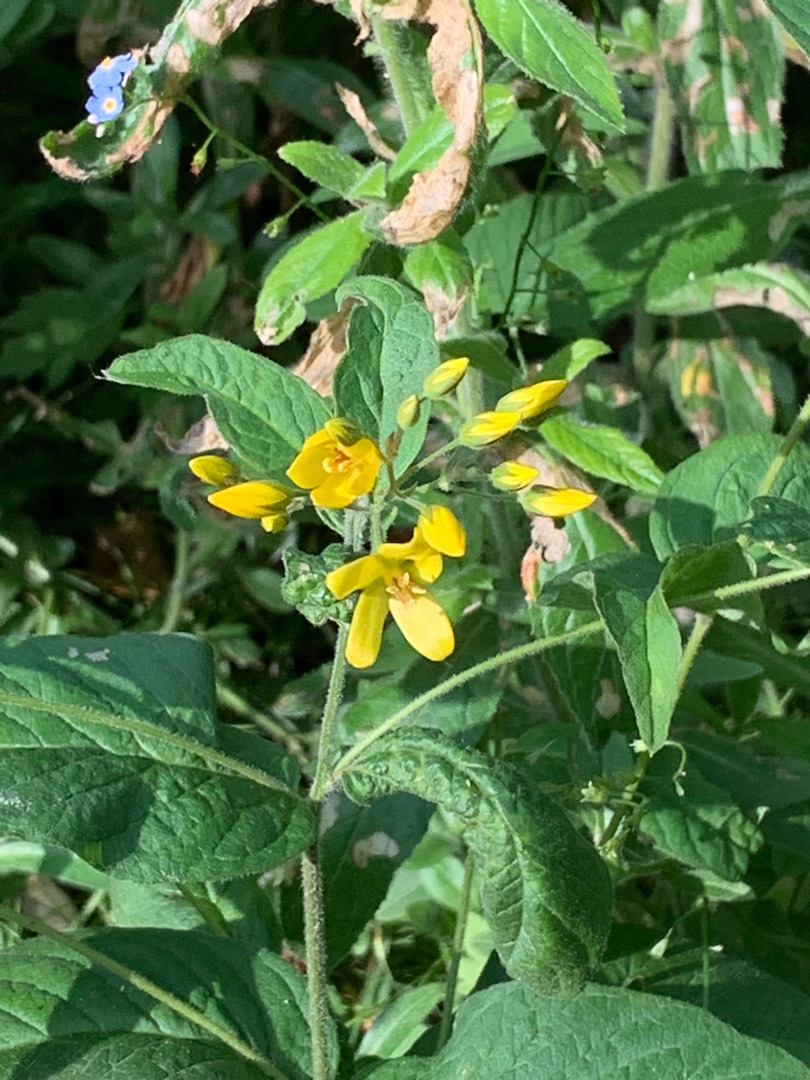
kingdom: Plantae
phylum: Tracheophyta
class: Magnoliopsida
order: Ericales
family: Primulaceae
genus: Lysimachia
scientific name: Lysimachia vulgaris
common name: Almindelig fredløs
